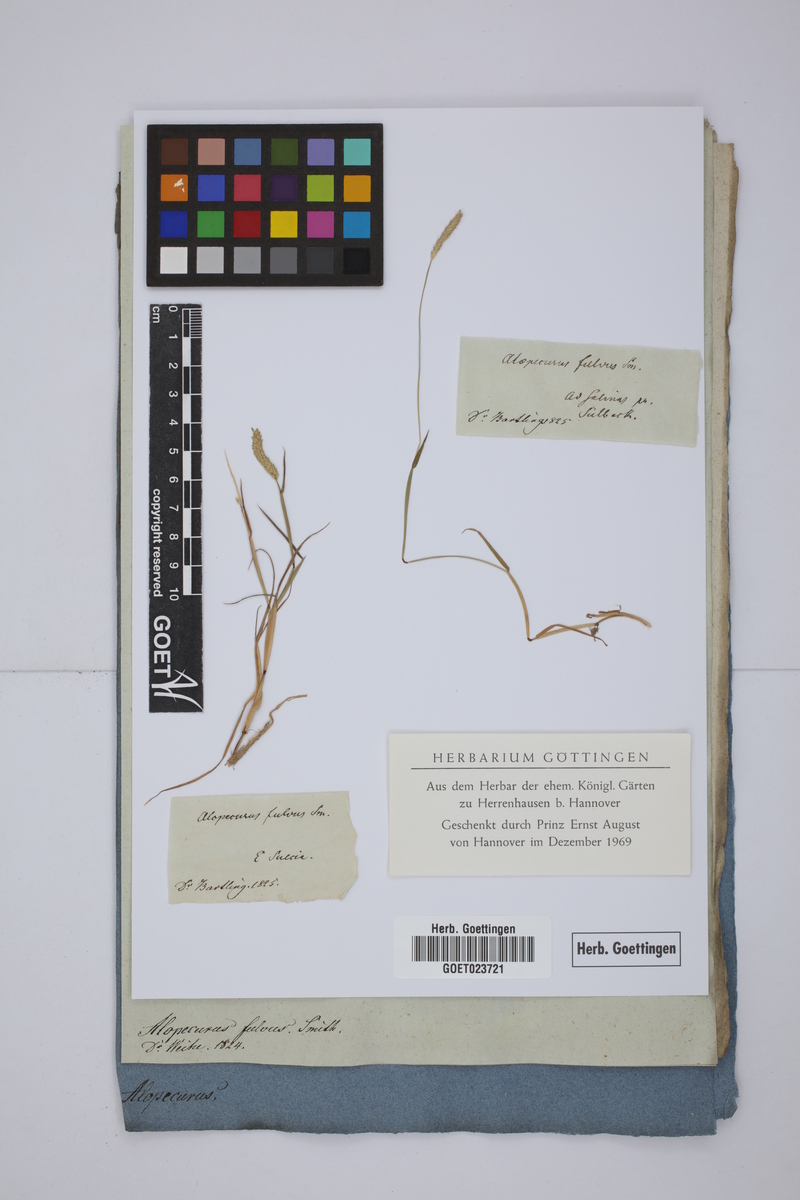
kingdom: Plantae
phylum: Tracheophyta
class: Liliopsida
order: Poales
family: Poaceae
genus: Alopecurus
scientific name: Alopecurus aequalis
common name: Orange foxtail
